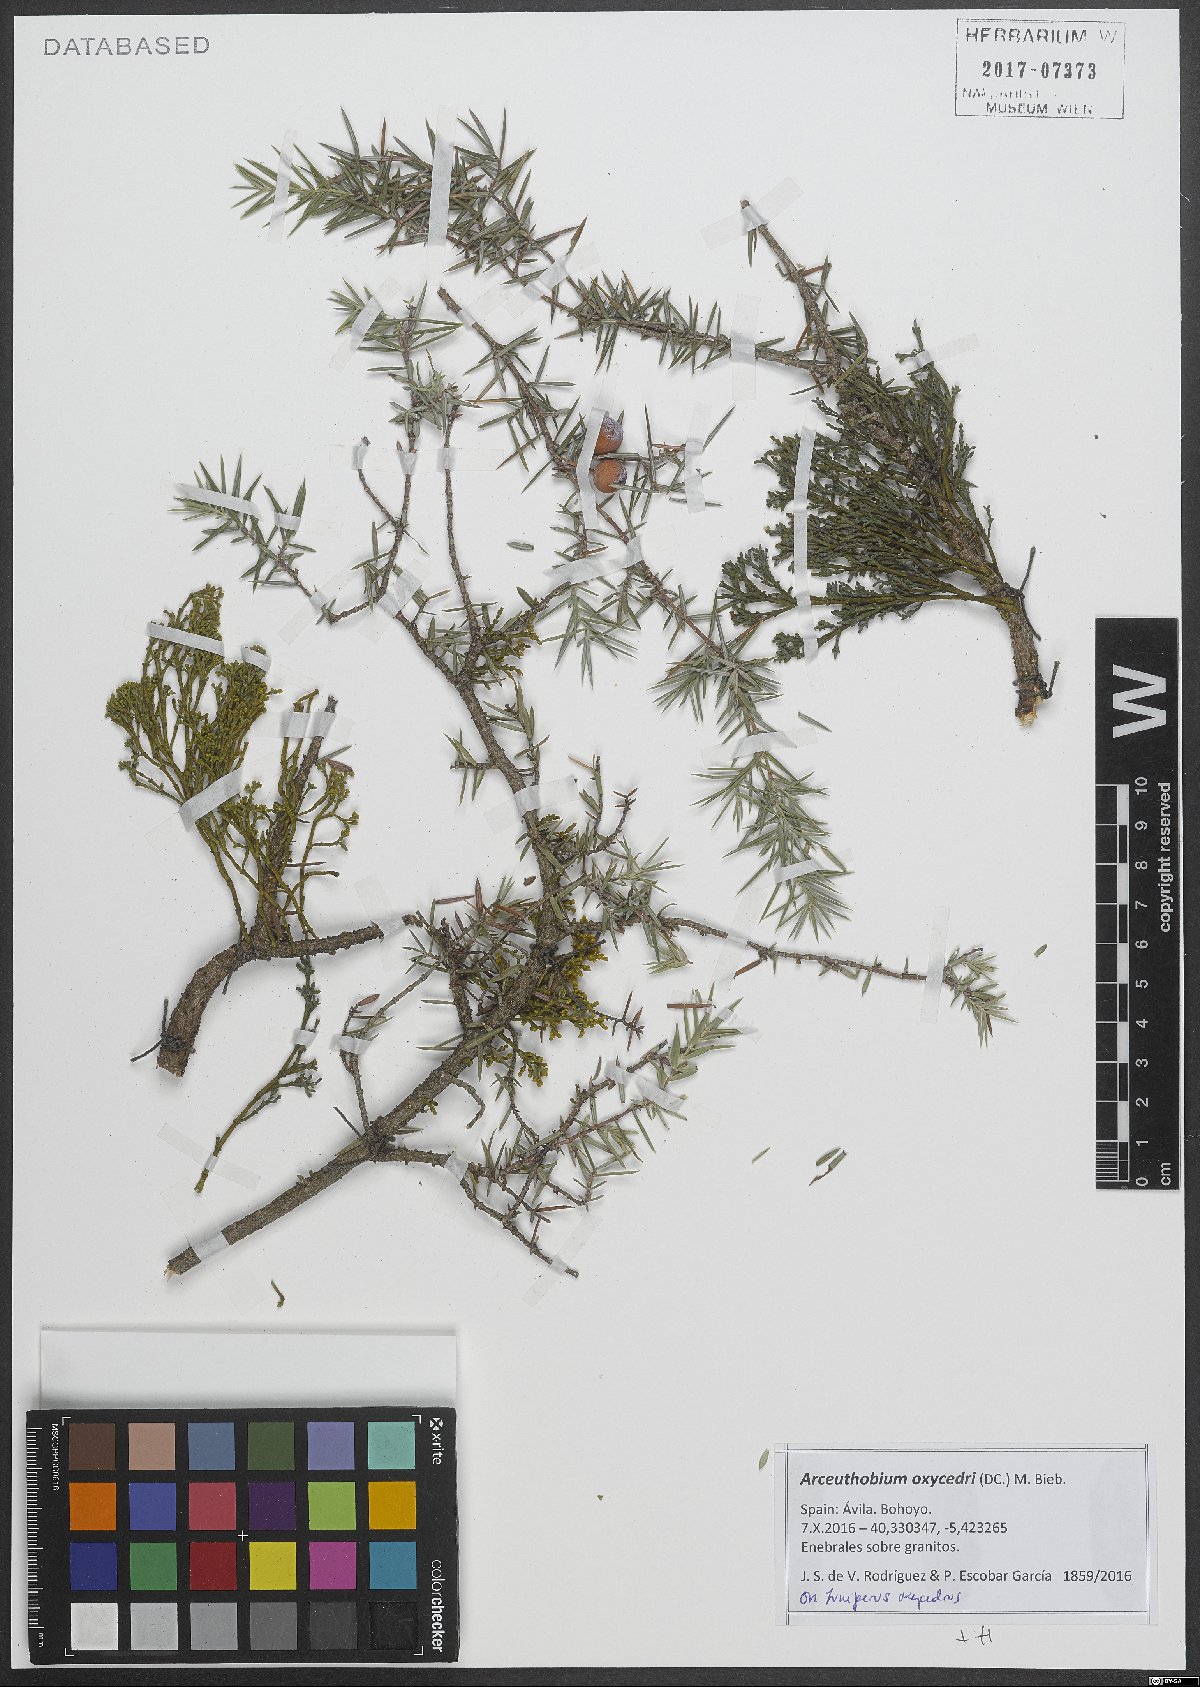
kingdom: Plantae
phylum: Tracheophyta
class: Magnoliopsida
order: Santalales
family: Viscaceae
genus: Arceuthobium
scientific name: Arceuthobium oxycedri
